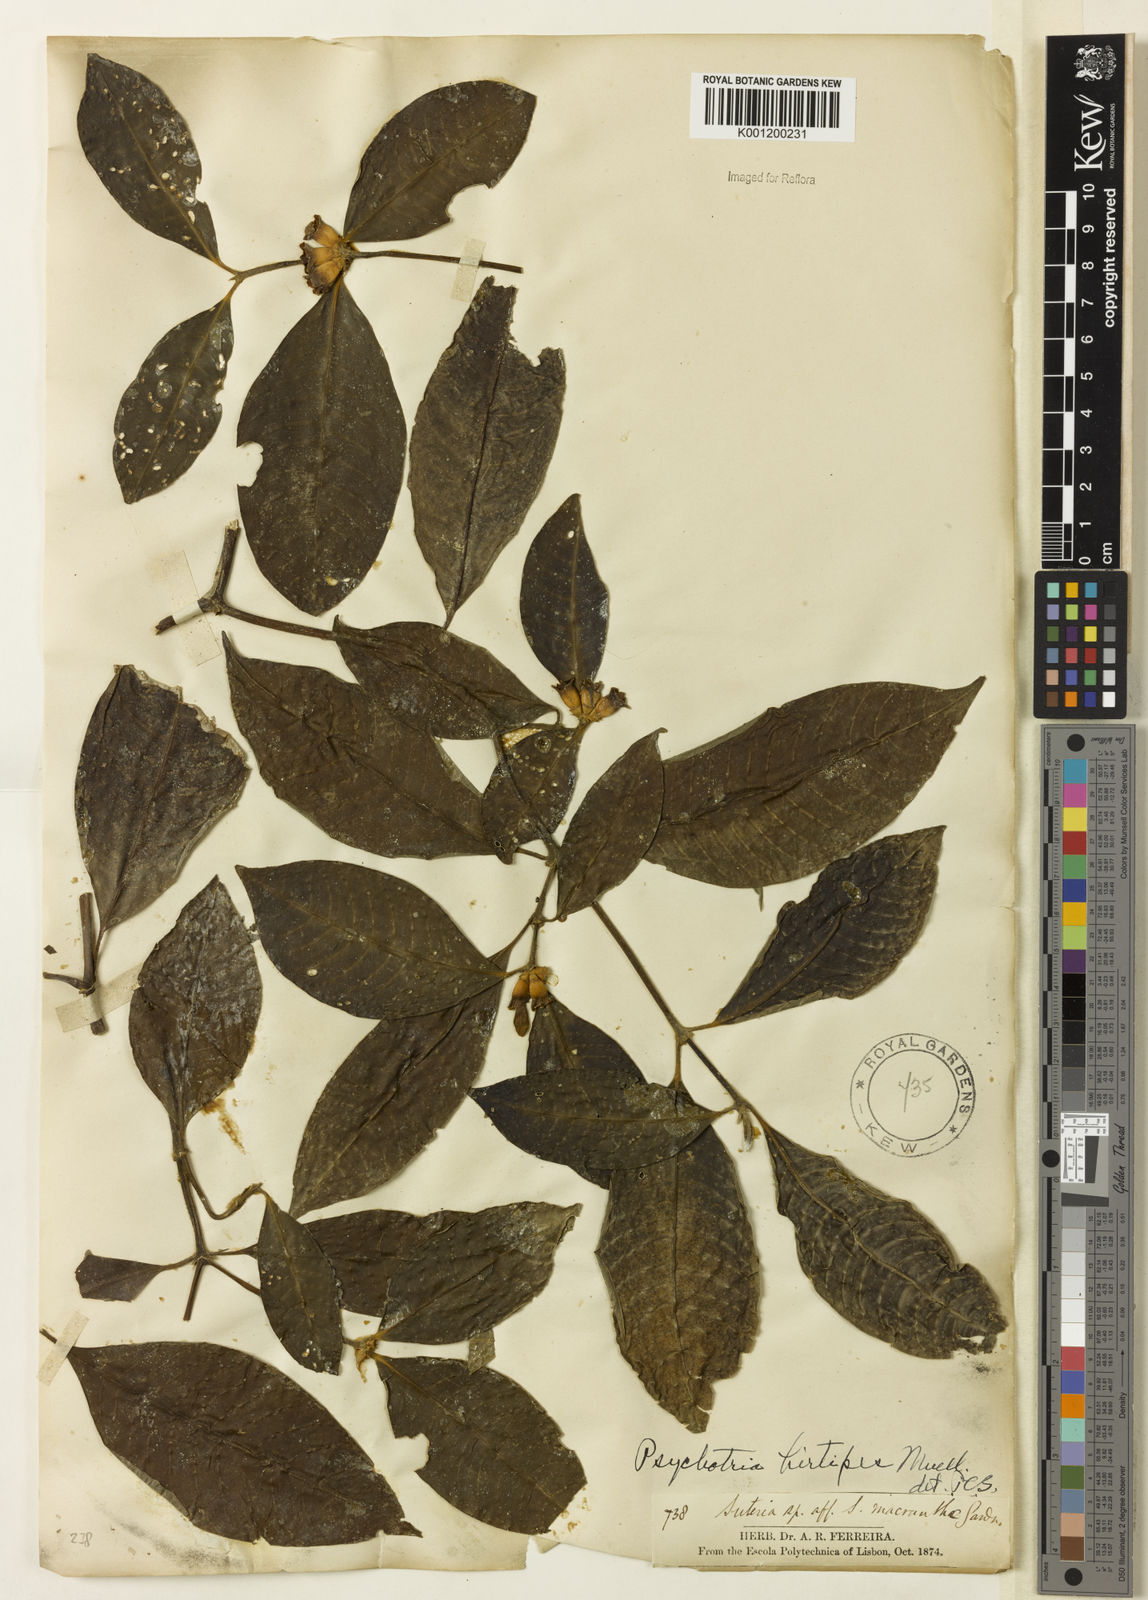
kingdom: Plantae
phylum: Tracheophyta
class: Magnoliopsida
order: Gentianales
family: Rubiaceae
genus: Psychotria
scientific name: Psychotria
